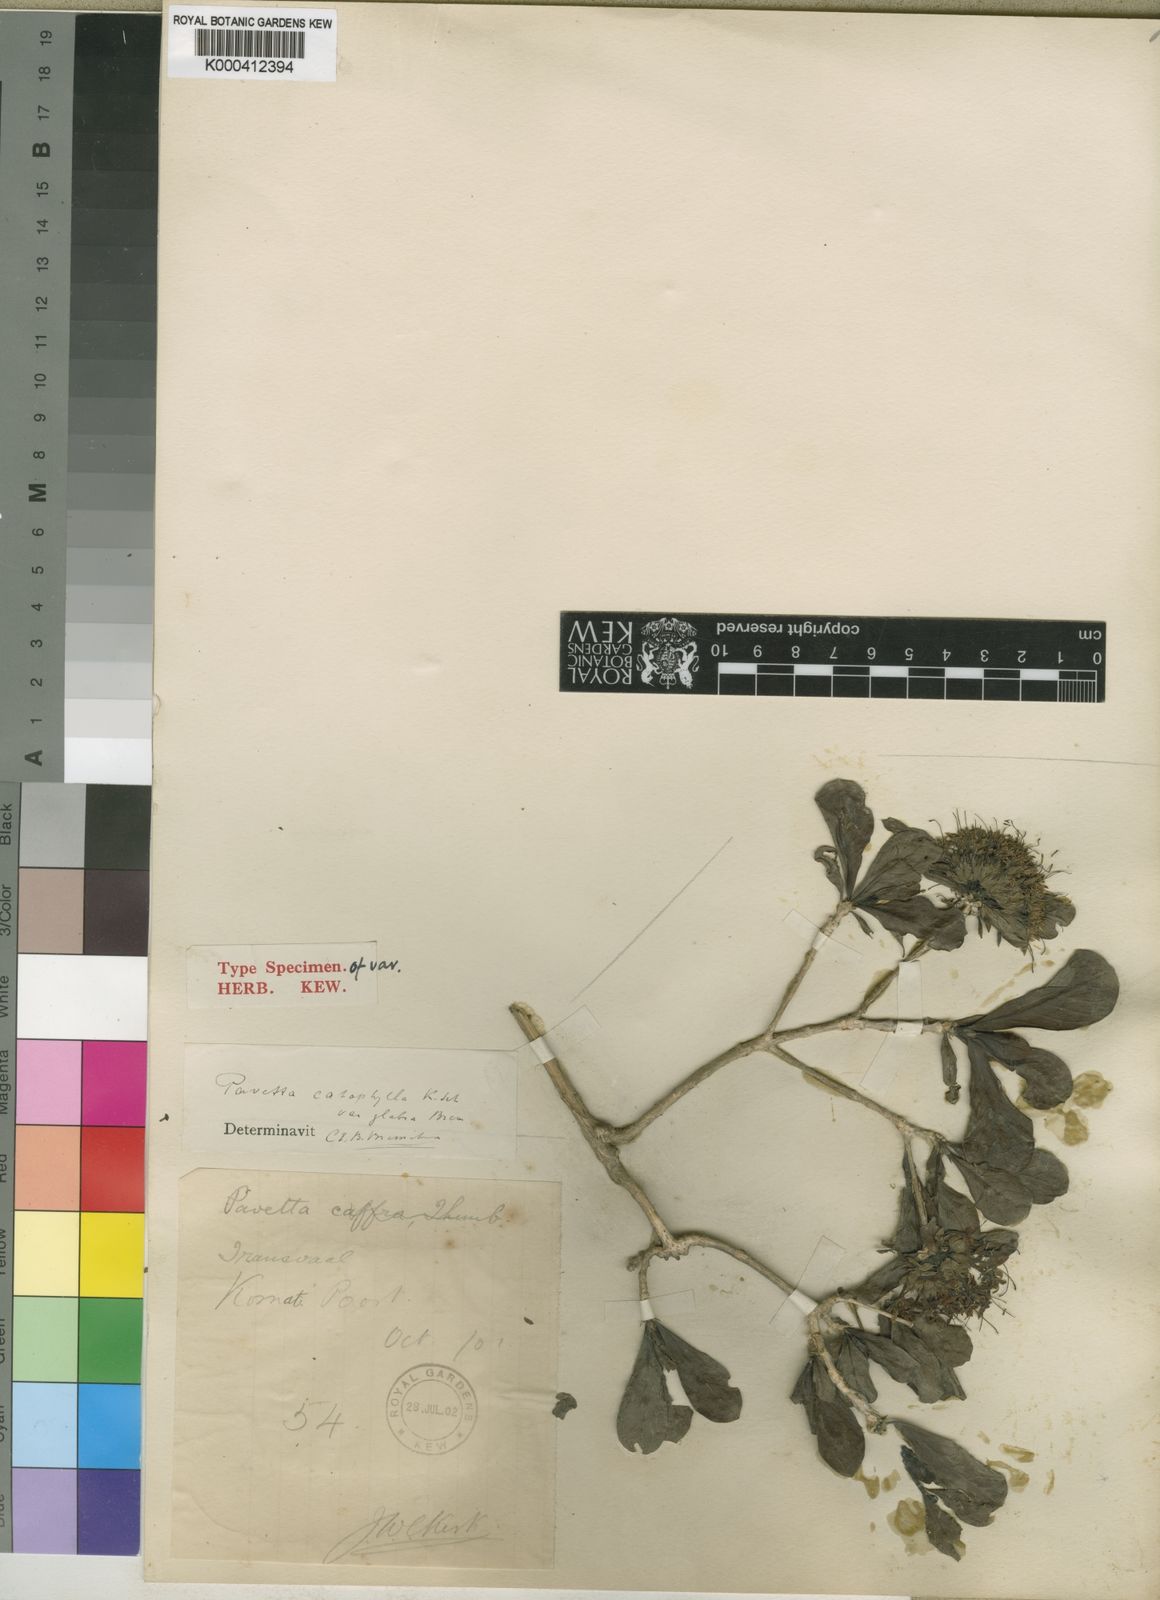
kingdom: Plantae
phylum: Tracheophyta
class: Magnoliopsida
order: Gentianales
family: Rubiaceae
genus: Pavetta
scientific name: Pavetta catophylla
